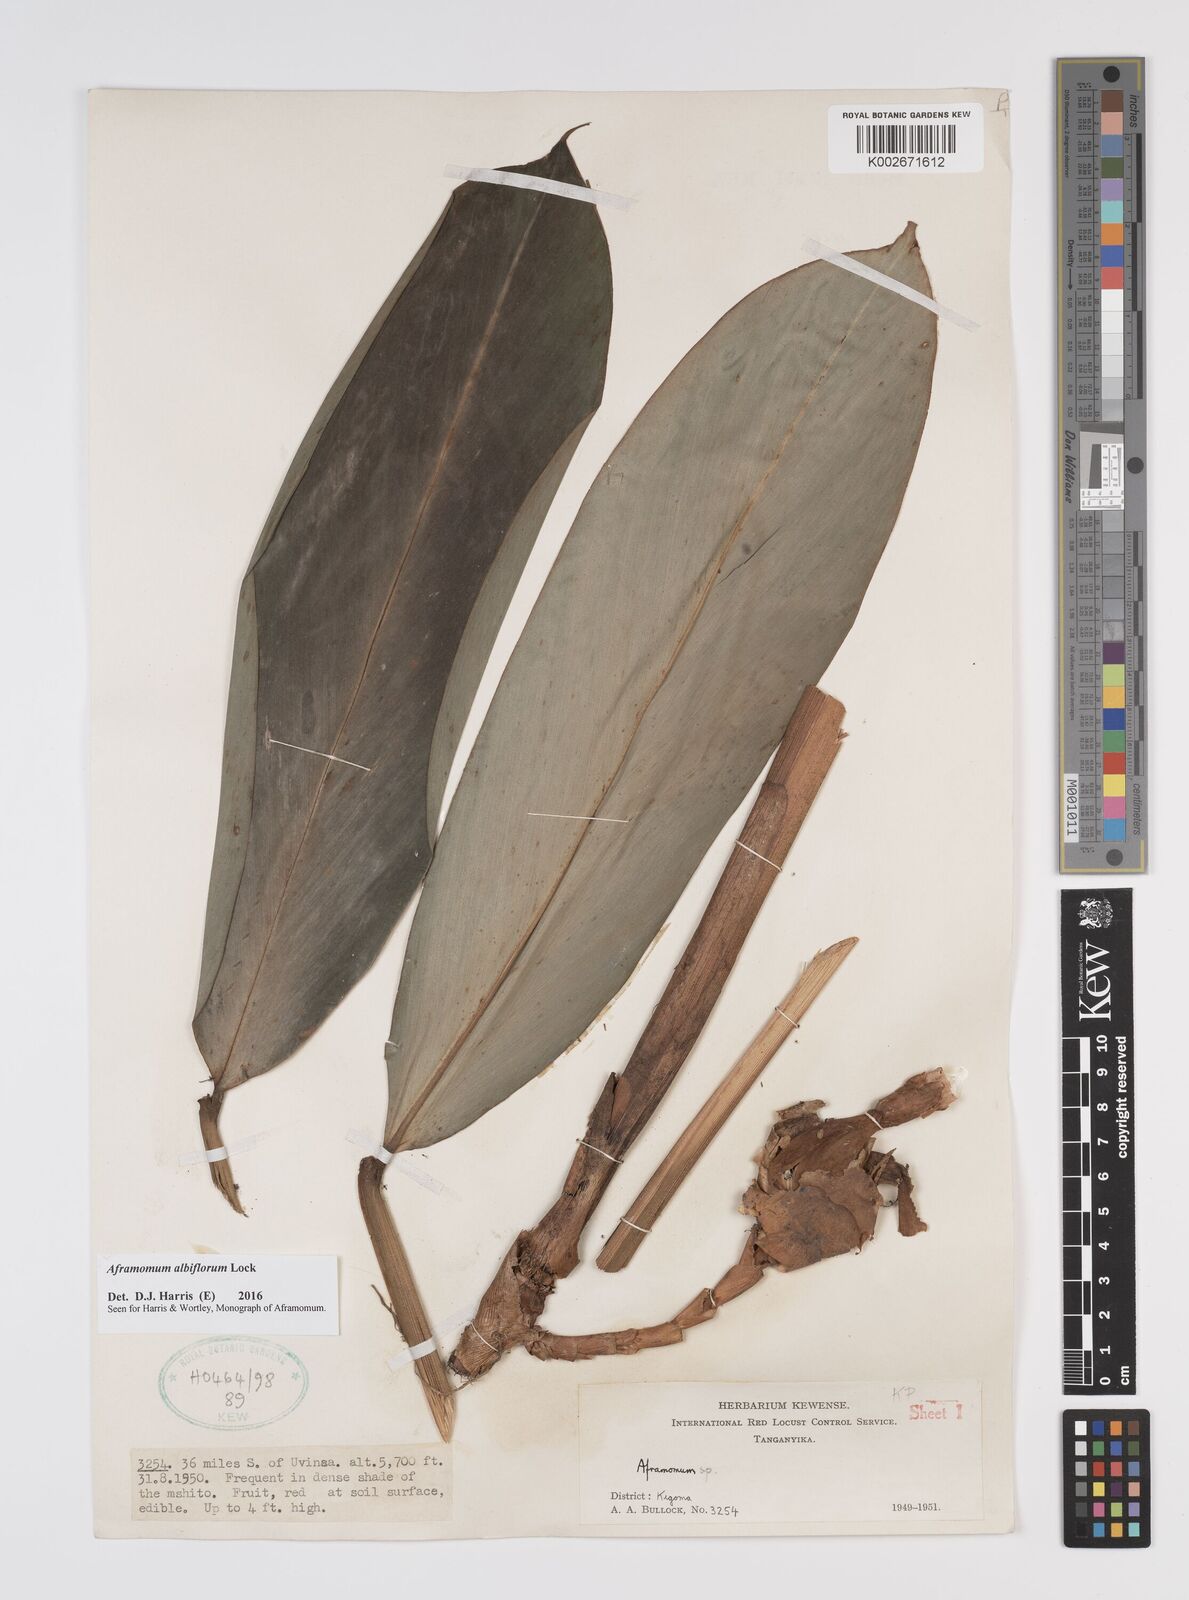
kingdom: Plantae
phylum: Tracheophyta
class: Liliopsida
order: Zingiberales
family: Zingiberaceae
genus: Aframomum
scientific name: Aframomum albiflorum
